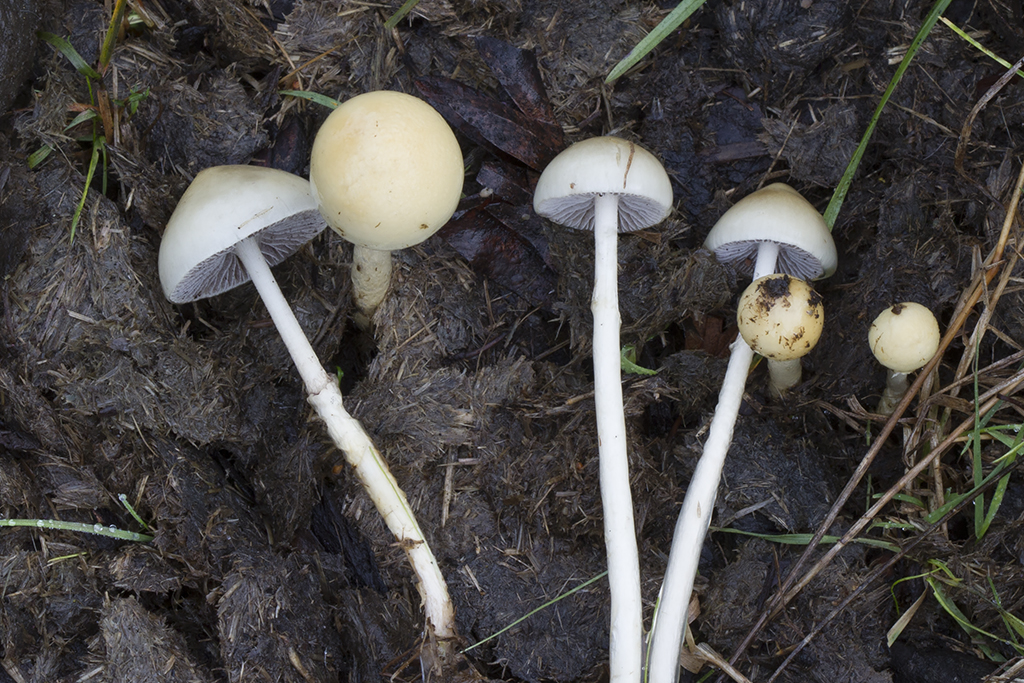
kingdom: Fungi
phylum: Basidiomycota
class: Agaricomycetes
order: Agaricales
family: Strophariaceae
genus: Protostropharia
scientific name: Protostropharia semiglobata
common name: halvkugleformet bredblad
